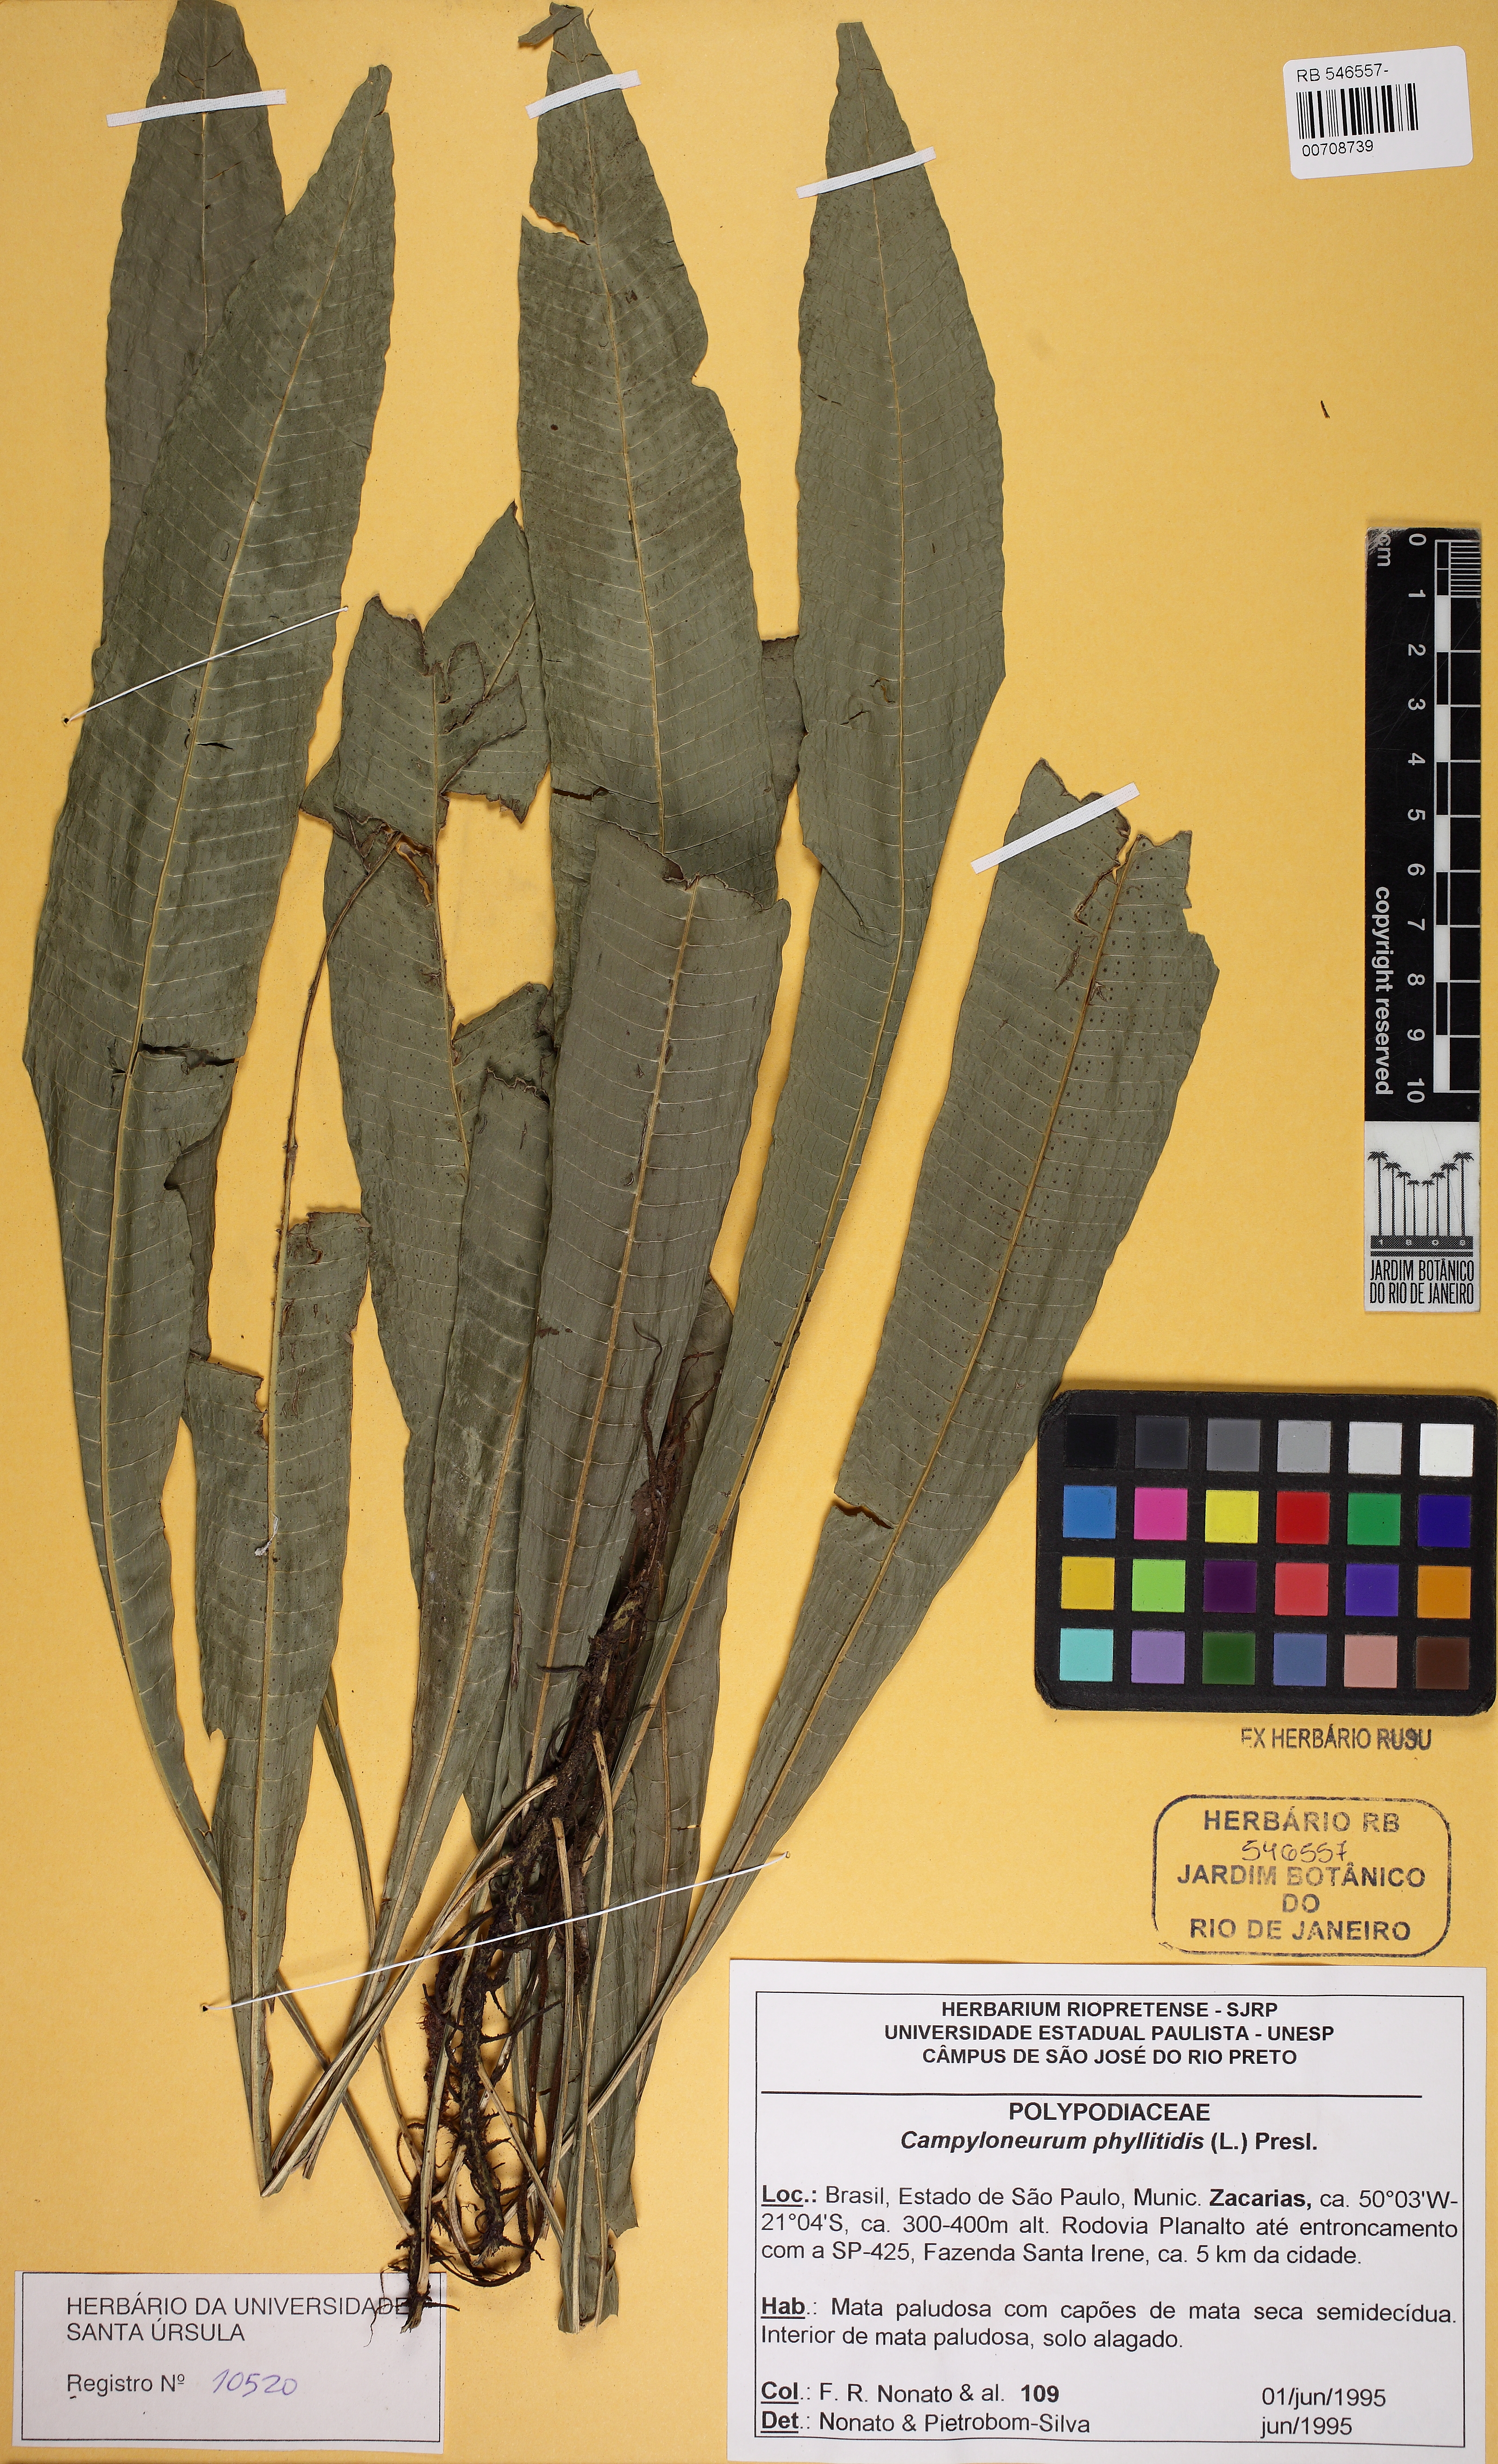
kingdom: Plantae
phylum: Tracheophyta
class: Polypodiopsida
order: Polypodiales
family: Polypodiaceae
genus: Campyloneurum
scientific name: Campyloneurum phyllitidis
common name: Cow-tongue fern
